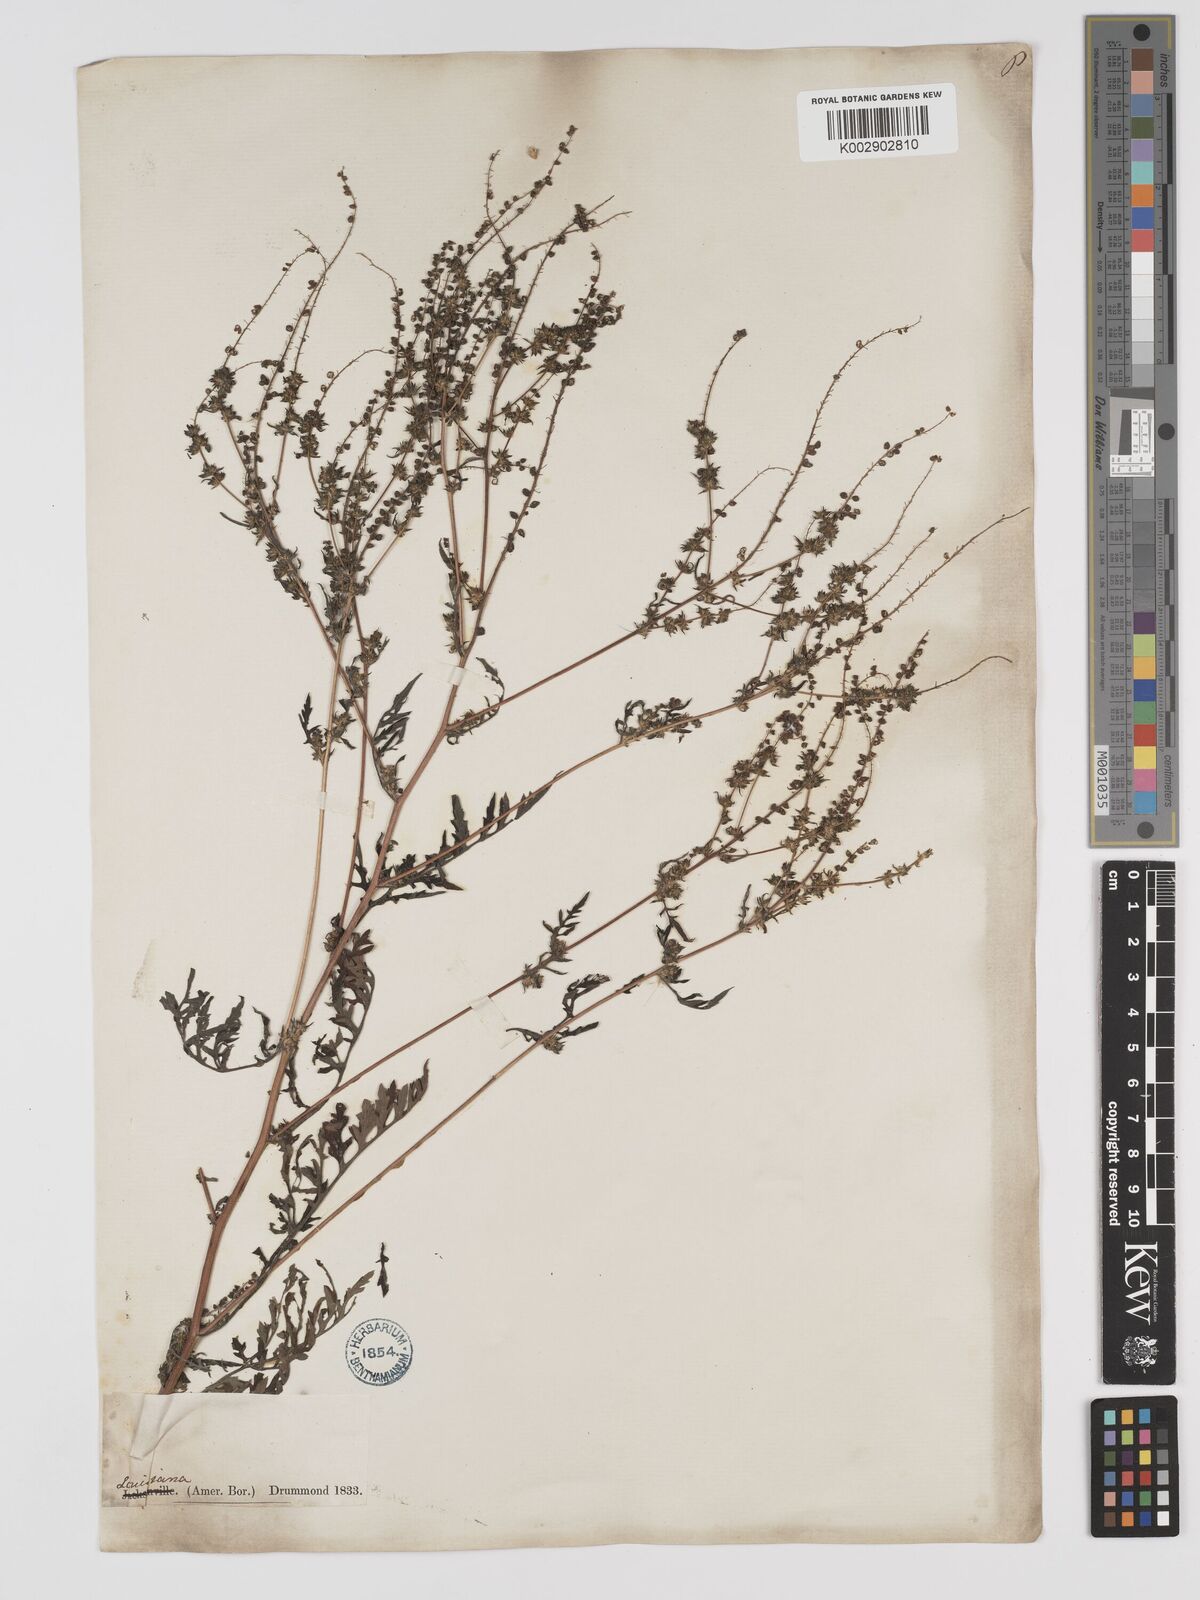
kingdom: Plantae
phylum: Tracheophyta
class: Magnoliopsida
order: Asterales
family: Asteraceae
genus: Ambrosia
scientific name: Ambrosia artemisiifolia
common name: Annual ragweed
